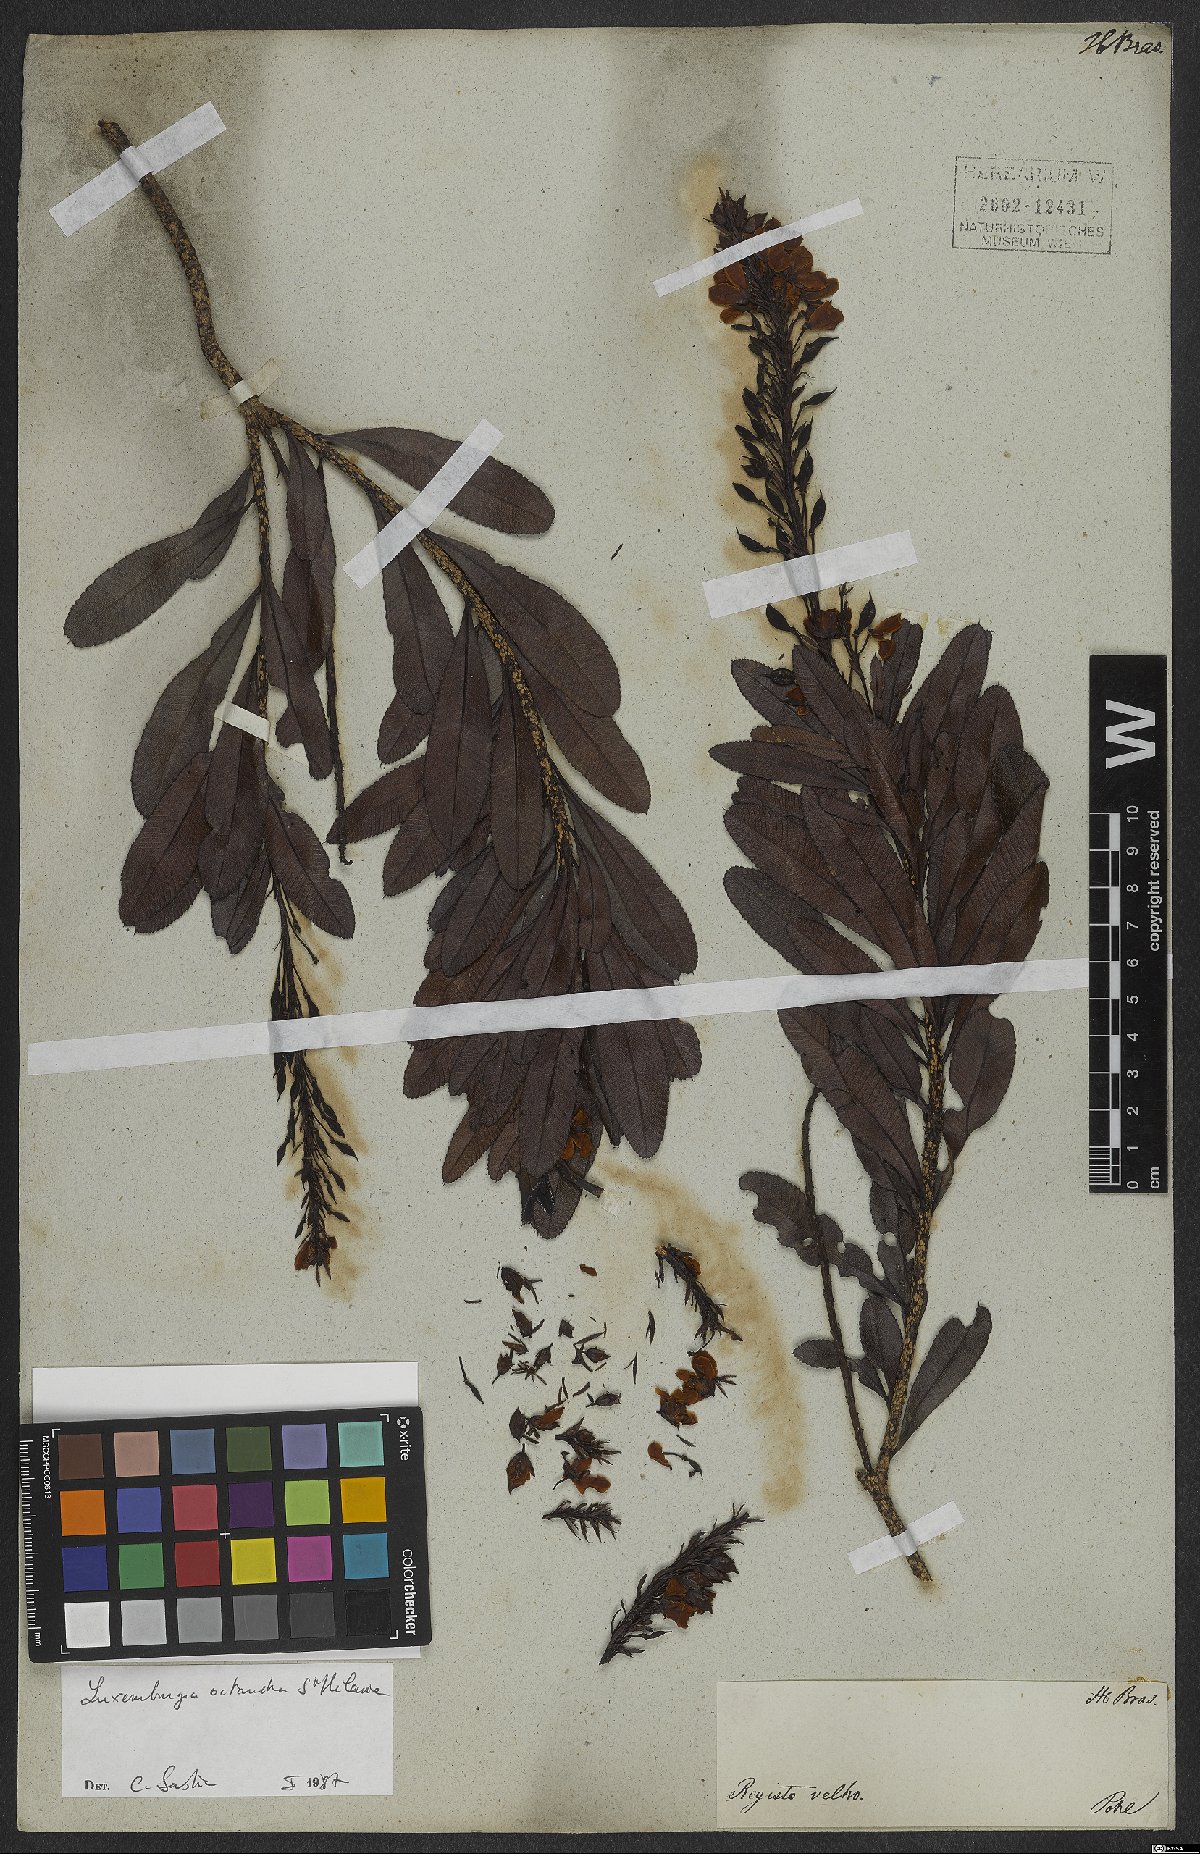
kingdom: Plantae
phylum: Tracheophyta
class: Magnoliopsida
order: Malpighiales
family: Ochnaceae
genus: Luxemburgia
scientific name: Luxemburgia octandra
